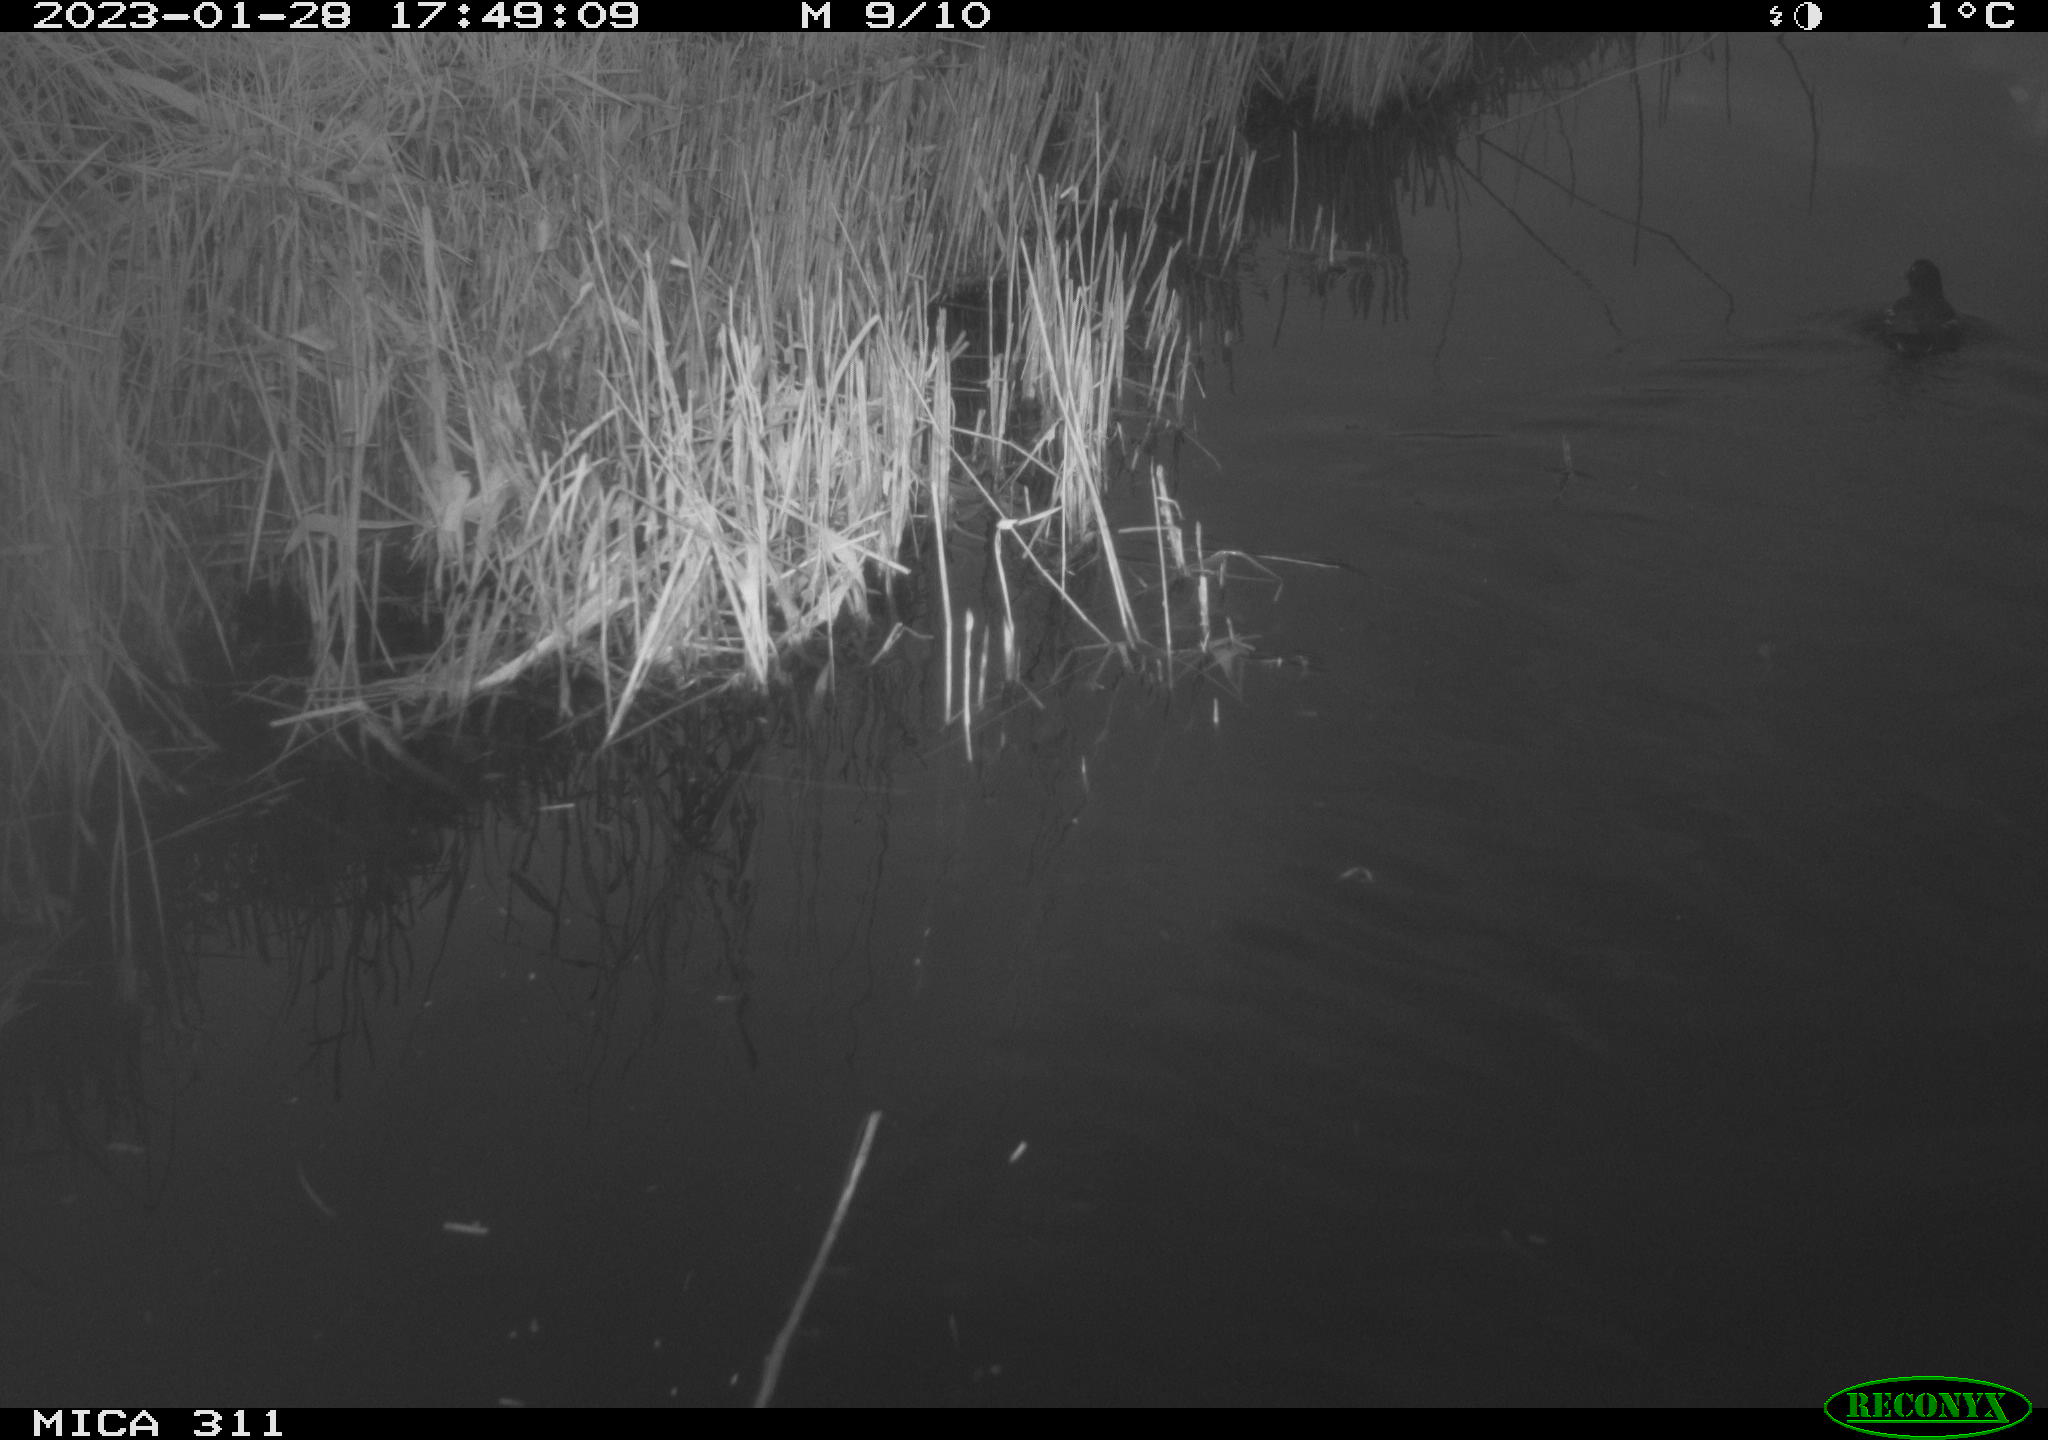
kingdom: Animalia
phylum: Chordata
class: Aves
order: Gruiformes
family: Rallidae
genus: Gallinula
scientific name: Gallinula chloropus
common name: Common moorhen
